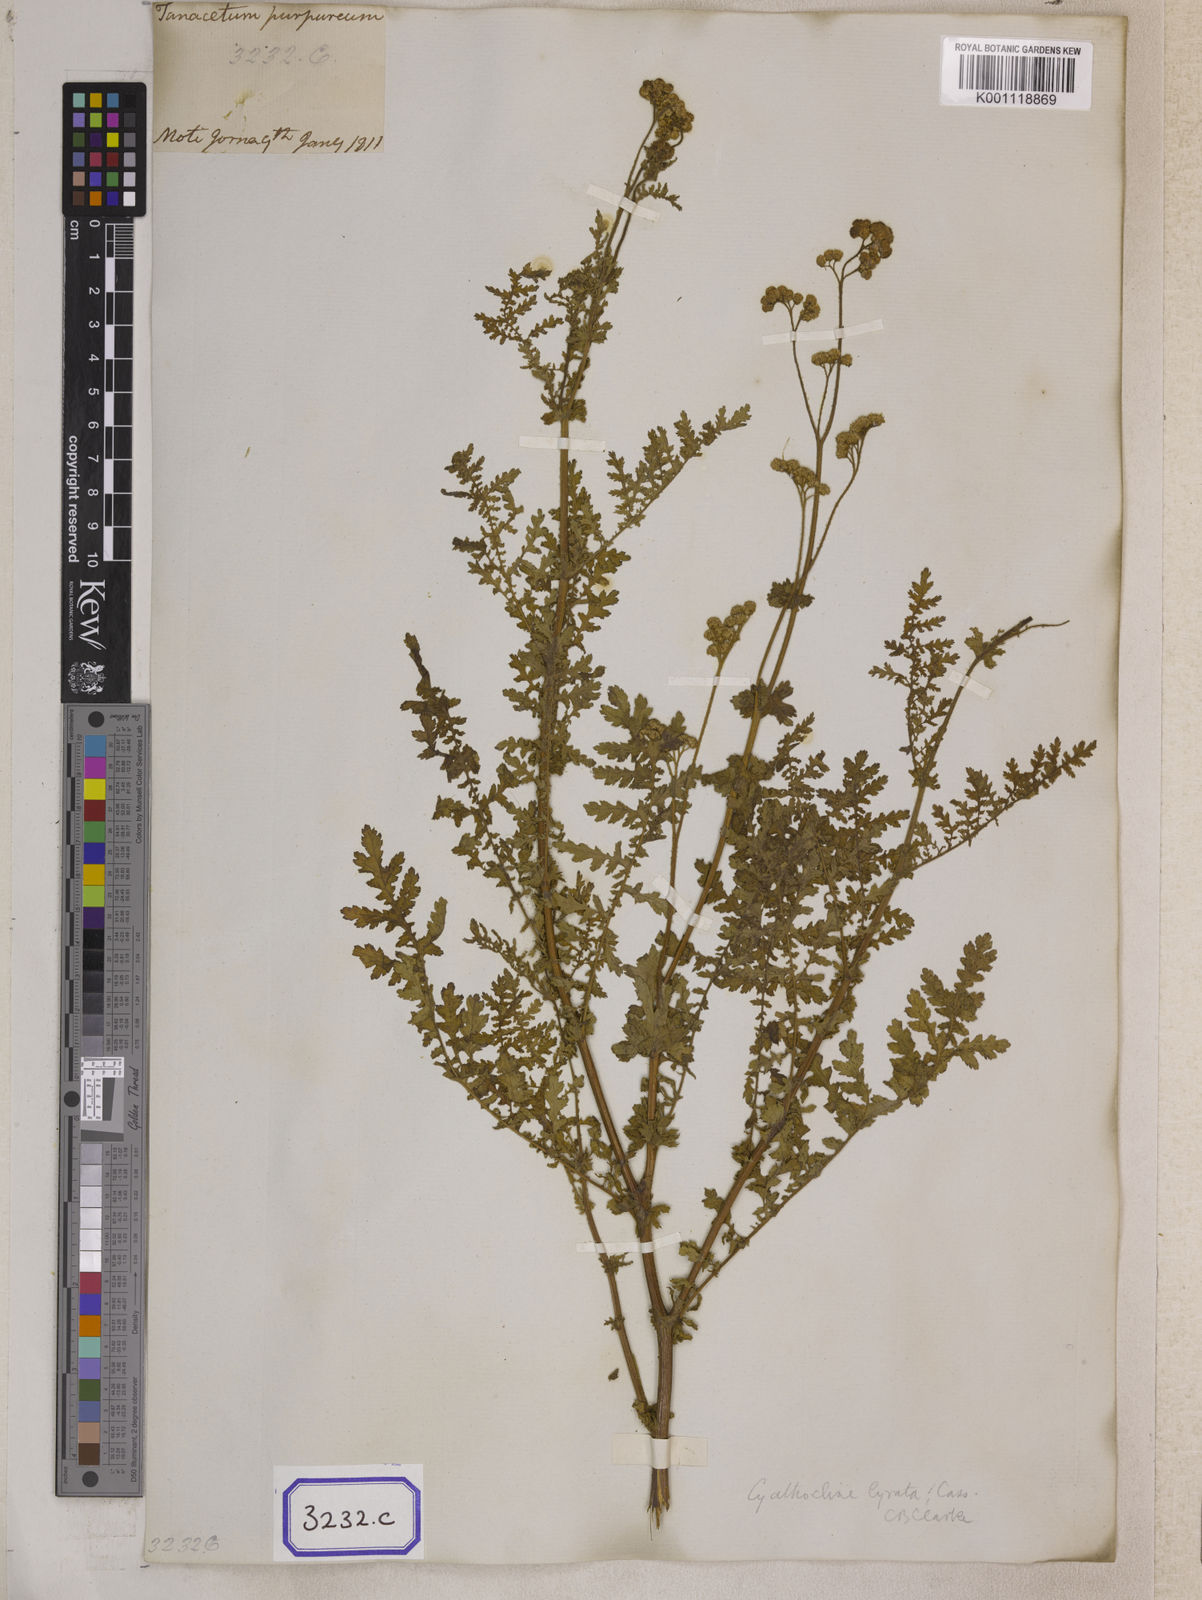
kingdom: Plantae
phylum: Tracheophyta
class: Magnoliopsida
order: Asterales
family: Asteraceae
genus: Cyathocline
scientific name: Cyathocline purpurea
